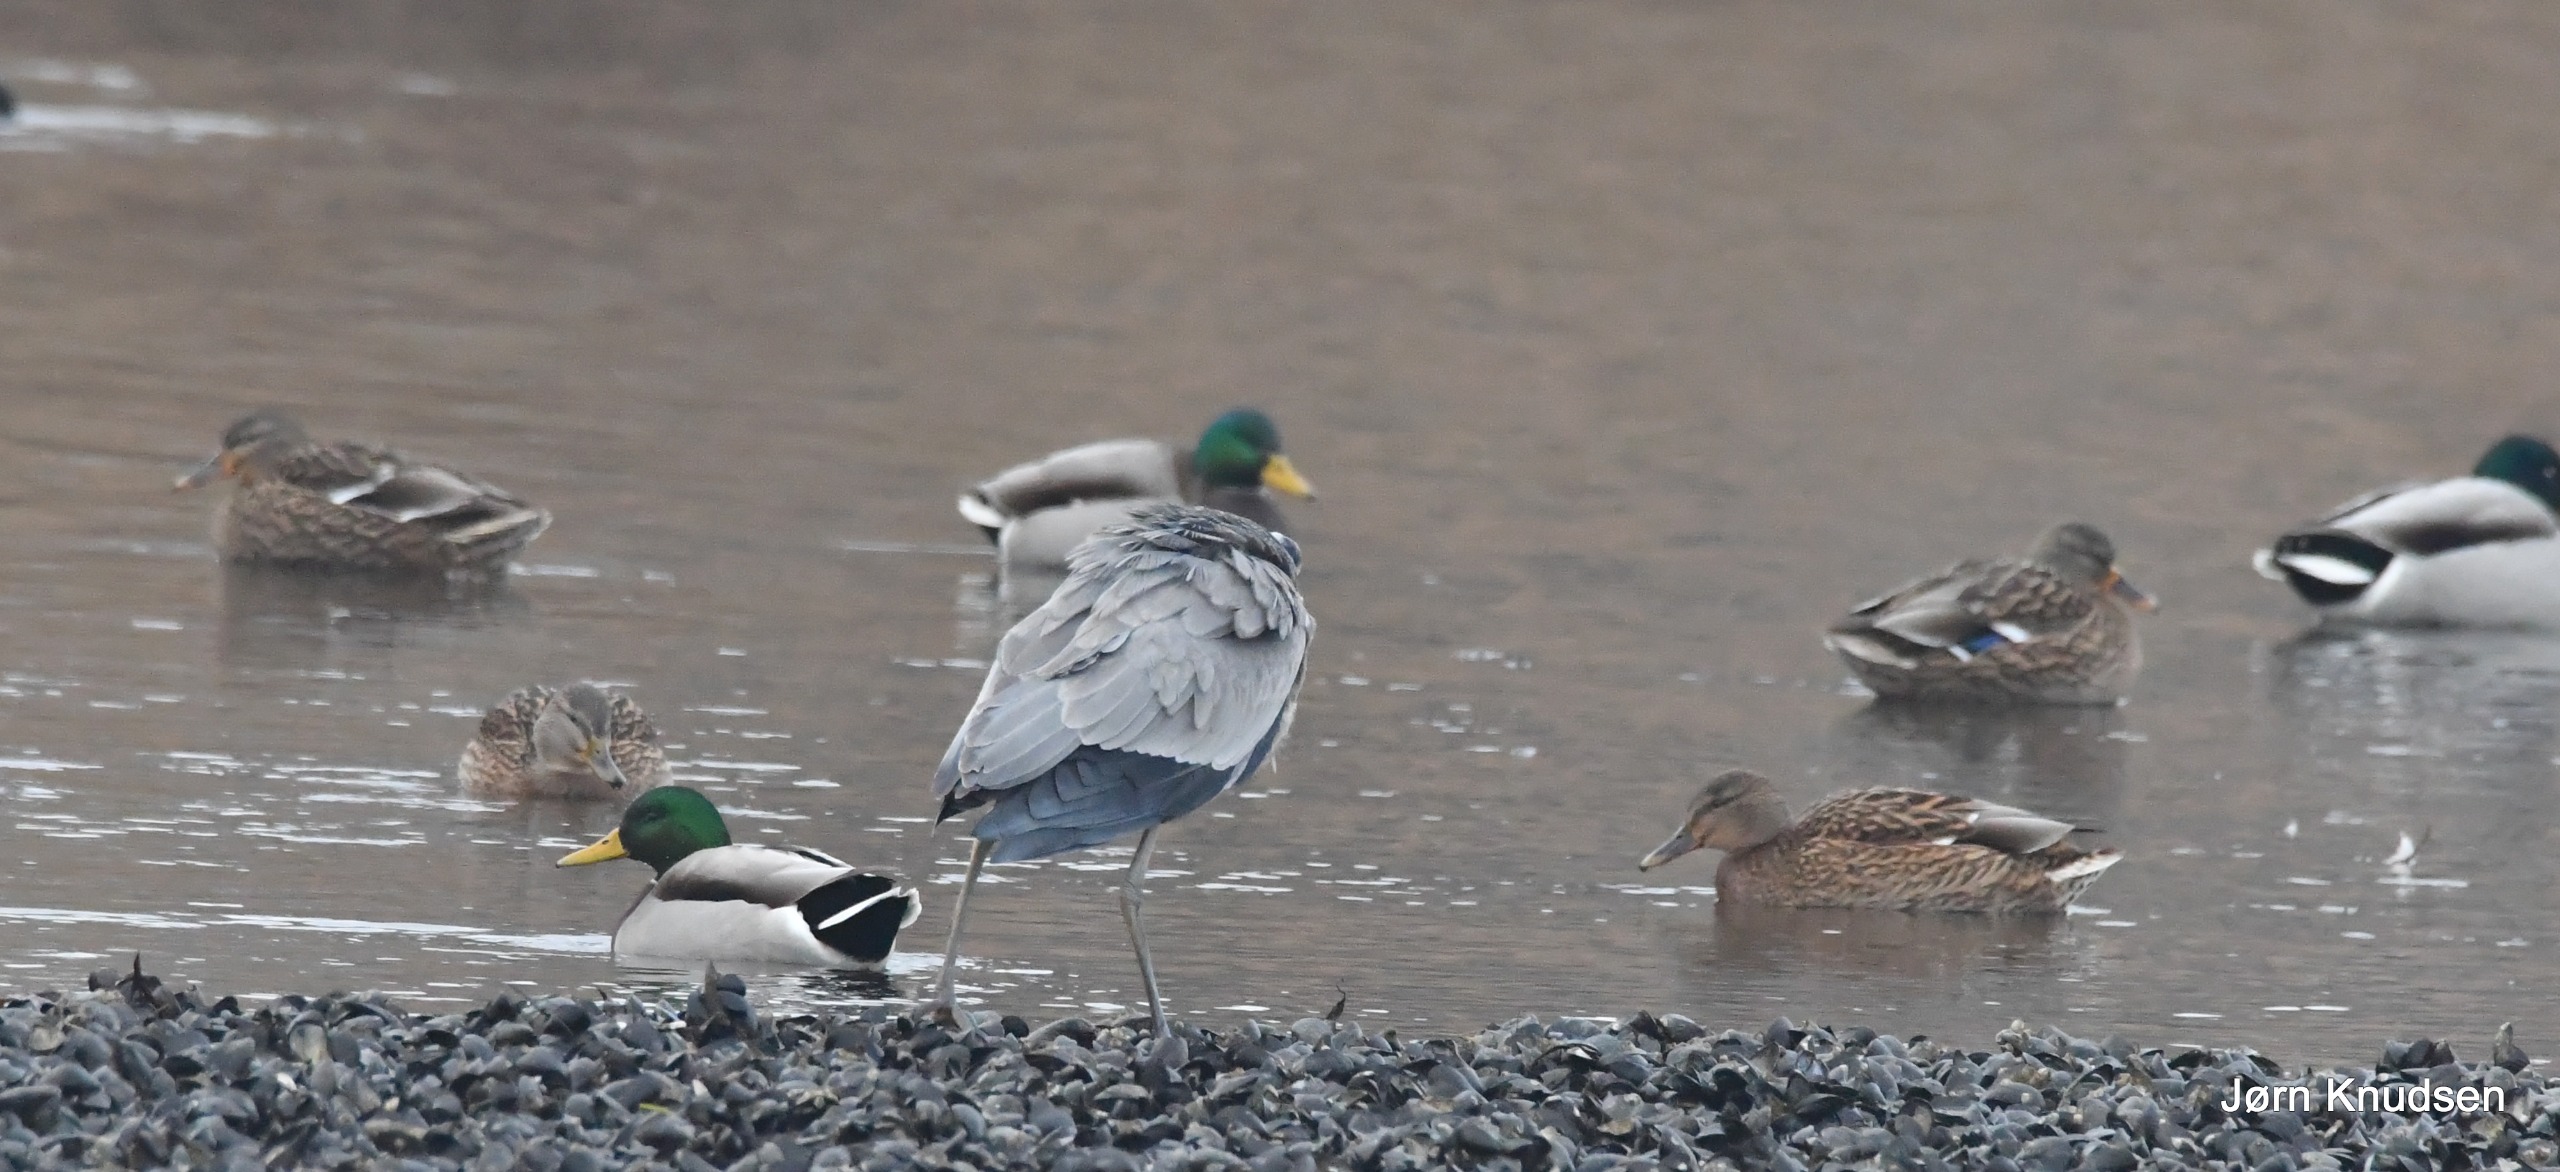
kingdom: Animalia
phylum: Chordata
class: Aves
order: Anseriformes
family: Anatidae
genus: Anas
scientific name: Anas platyrhynchos
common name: Gråand
